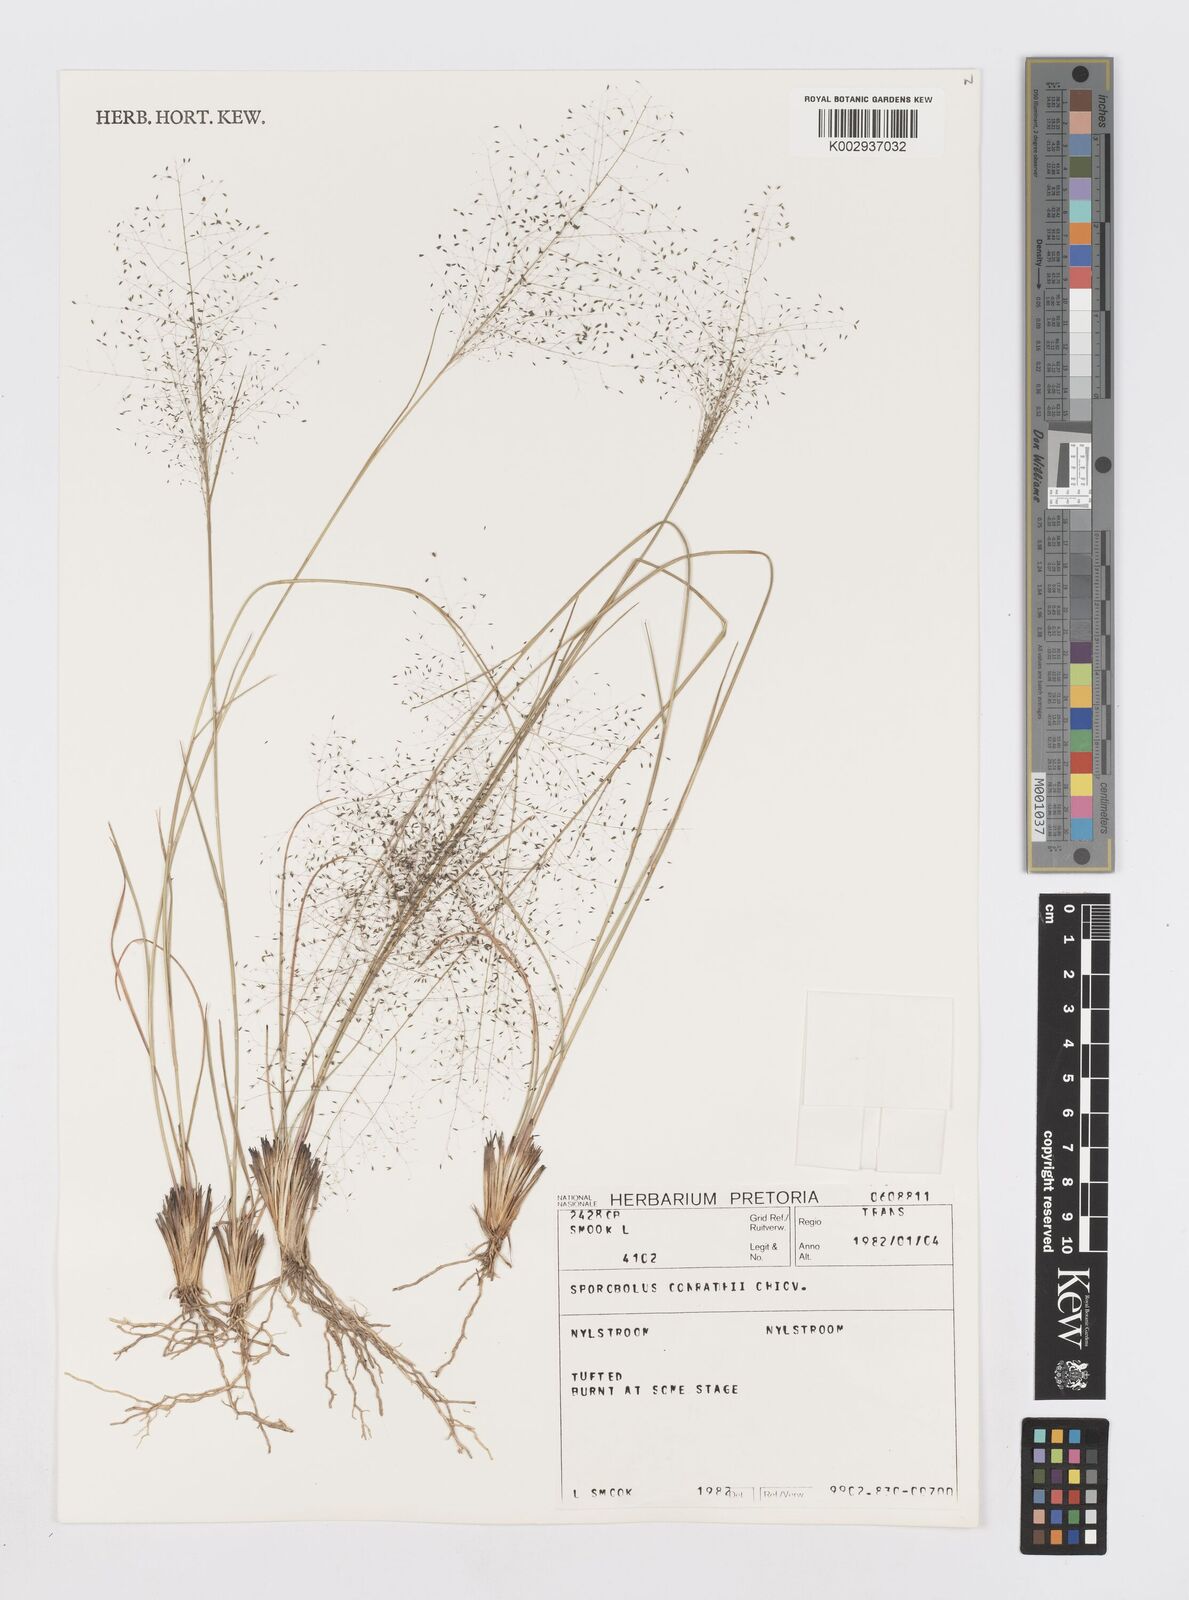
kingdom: Plantae
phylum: Tracheophyta
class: Liliopsida
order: Poales
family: Poaceae
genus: Sporobolus
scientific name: Sporobolus welwitschii
